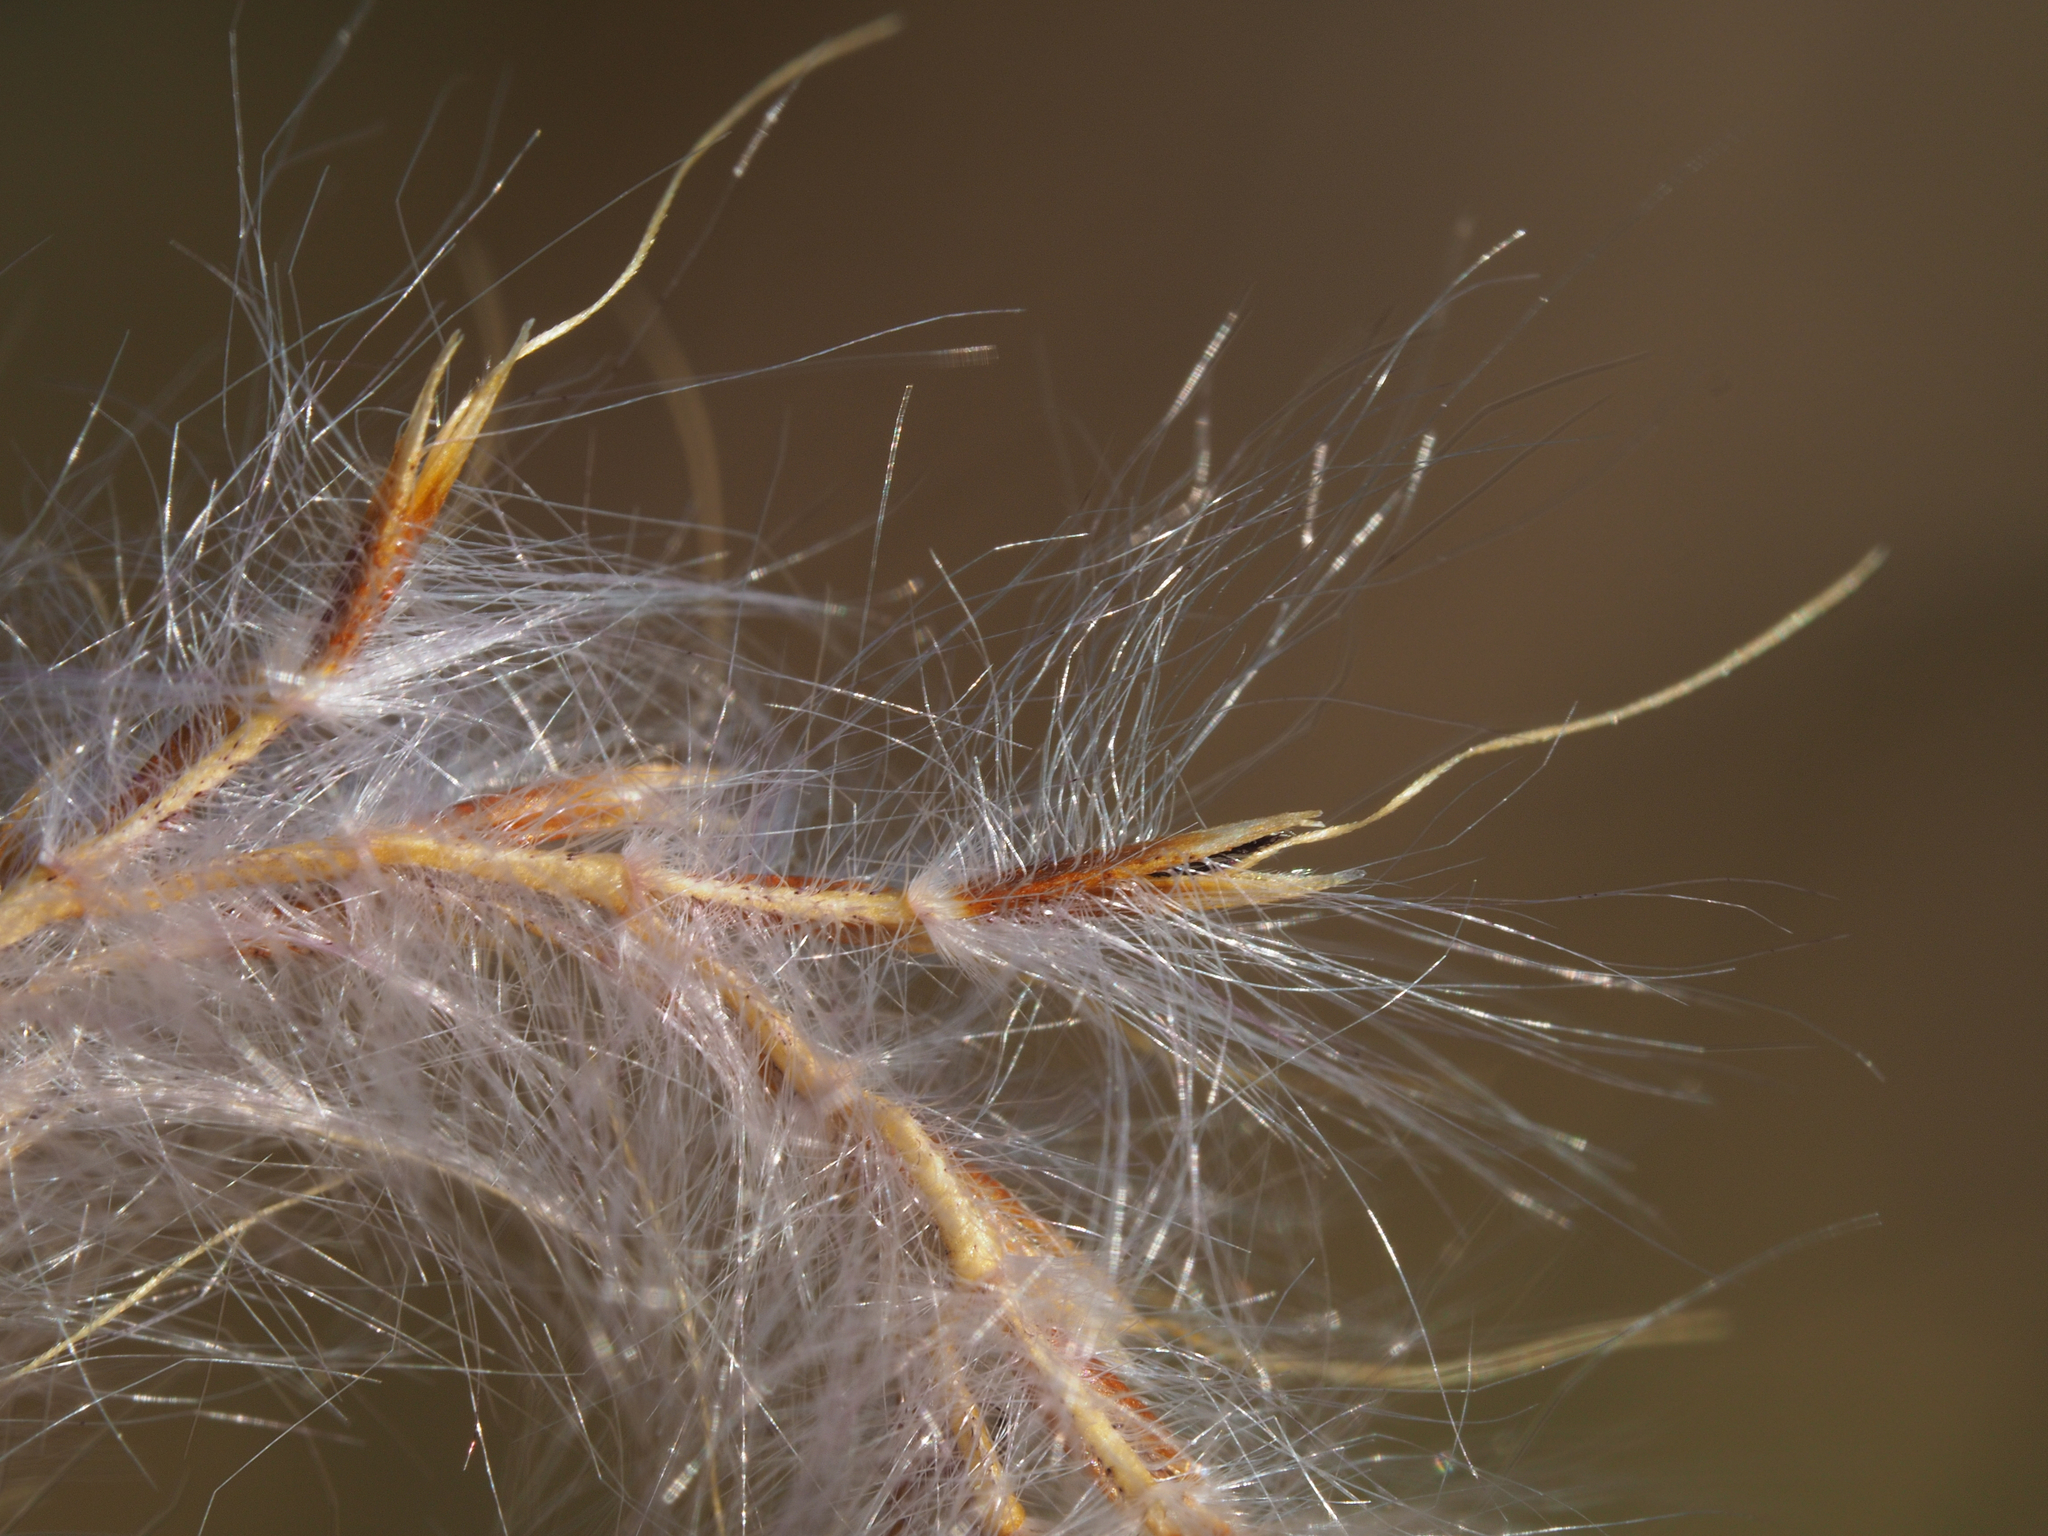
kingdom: Plantae
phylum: Tracheophyta
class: Liliopsida
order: Poales
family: Poaceae
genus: Saccharum
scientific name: Saccharum formosanum
